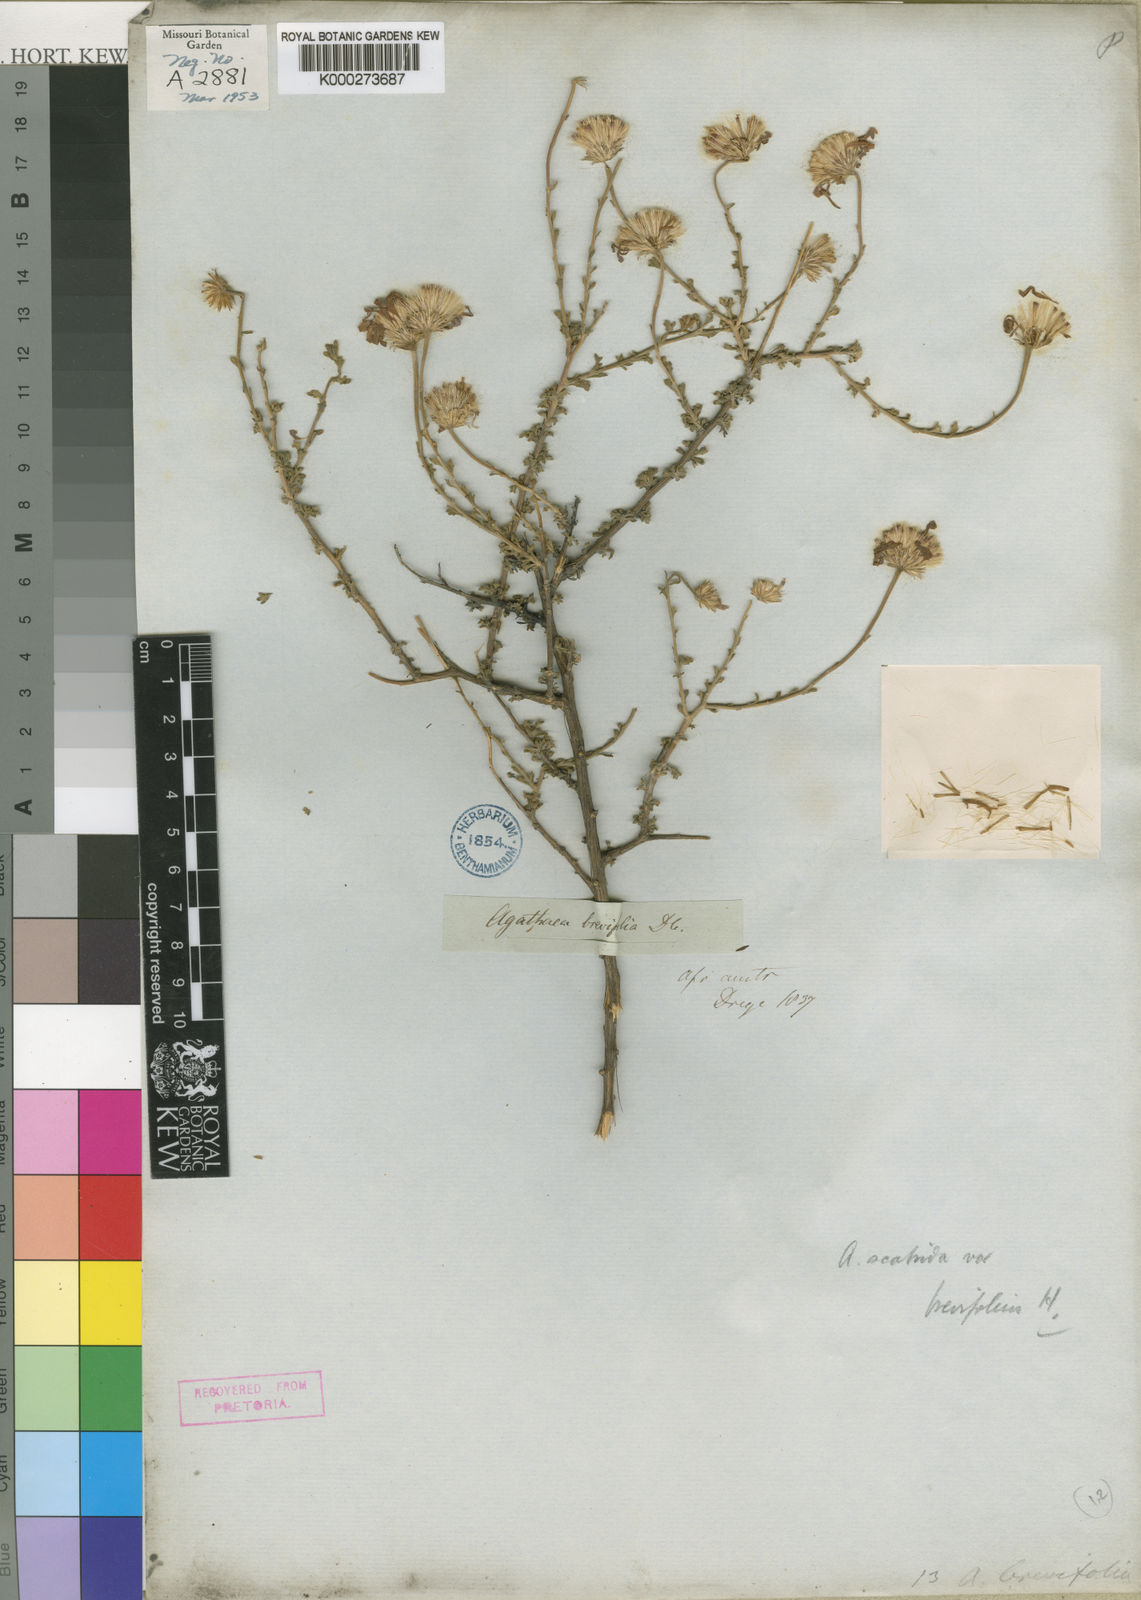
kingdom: Plantae
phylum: Tracheophyta
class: Magnoliopsida
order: Asterales
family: Asteraceae
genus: Felicia
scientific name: Felicia
